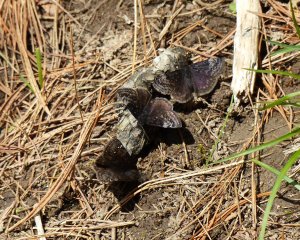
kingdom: Animalia
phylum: Arthropoda
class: Insecta
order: Lepidoptera
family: Hesperiidae
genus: Gesta
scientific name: Gesta
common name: Columbine Duskywing
